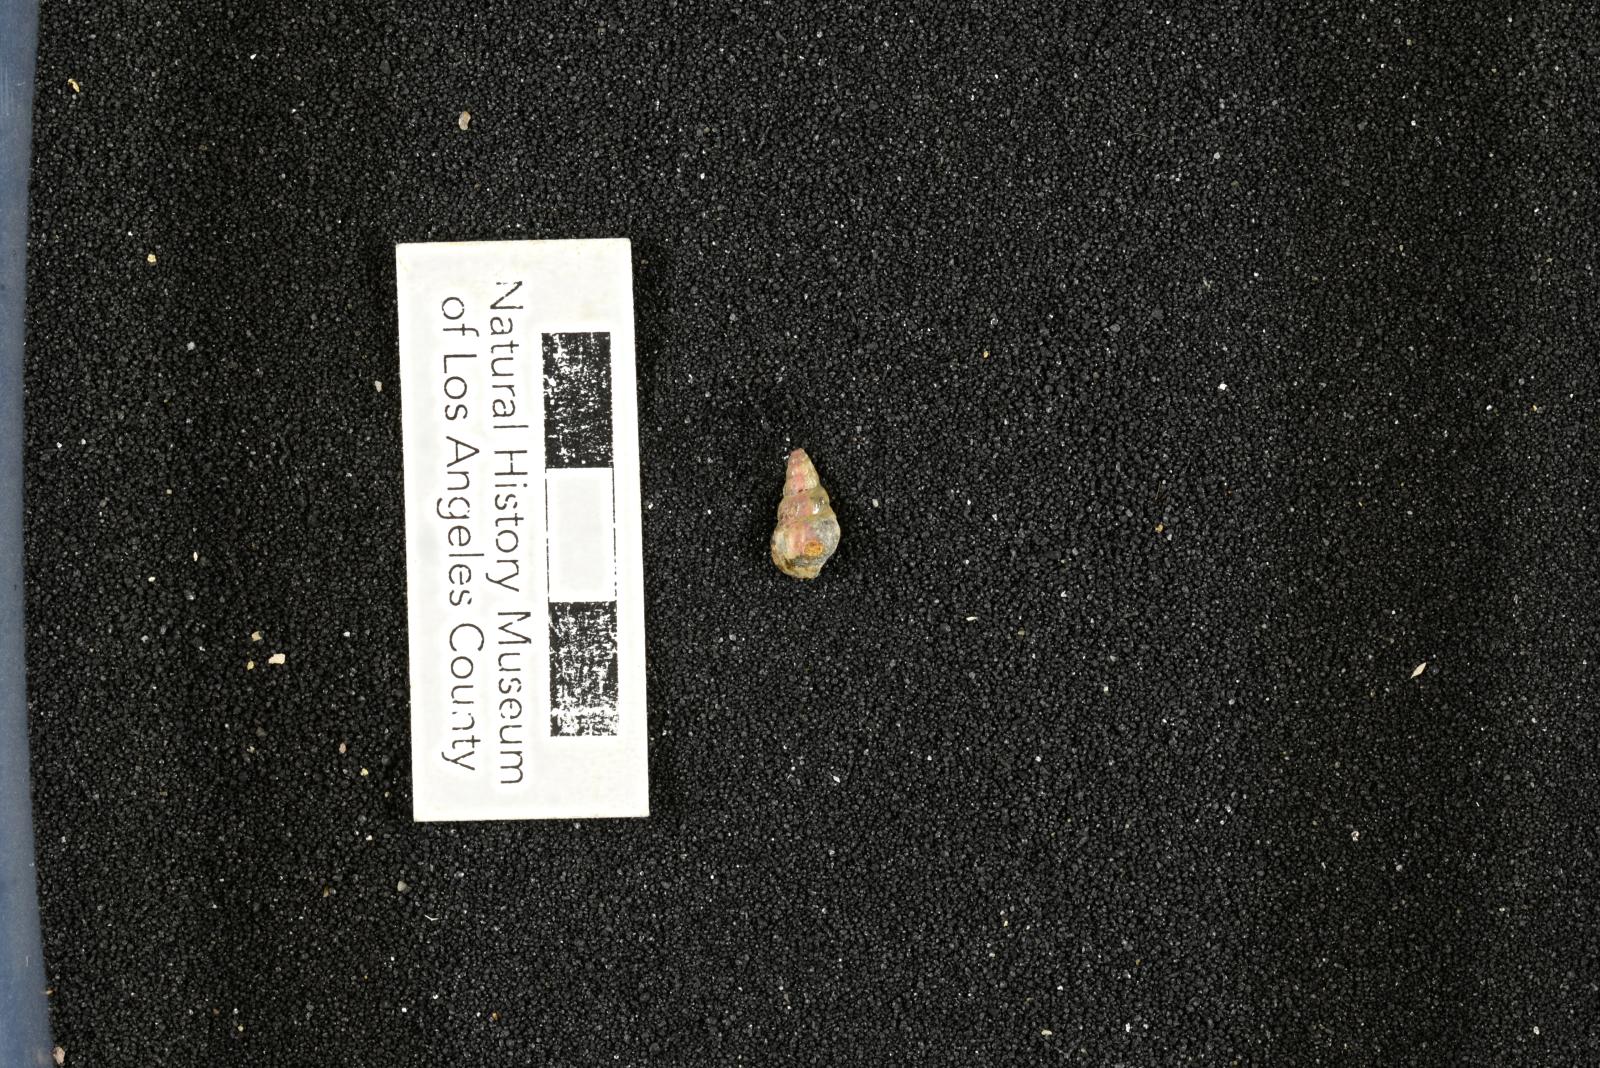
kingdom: Animalia
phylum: Mollusca
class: Gastropoda
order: Littorinimorpha
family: Aporrhaidae
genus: Latiala
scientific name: Latiala Alaria nodosa
